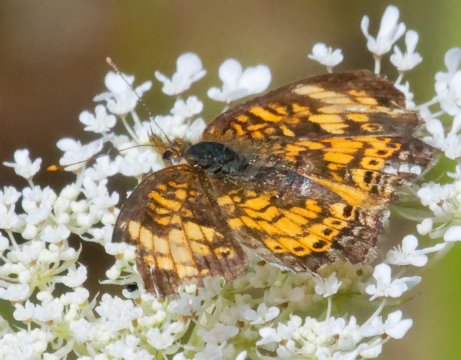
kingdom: Animalia
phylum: Arthropoda
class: Insecta
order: Lepidoptera
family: Nymphalidae
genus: Phyciodes
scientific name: Phyciodes tharos
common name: Northern Crescent
